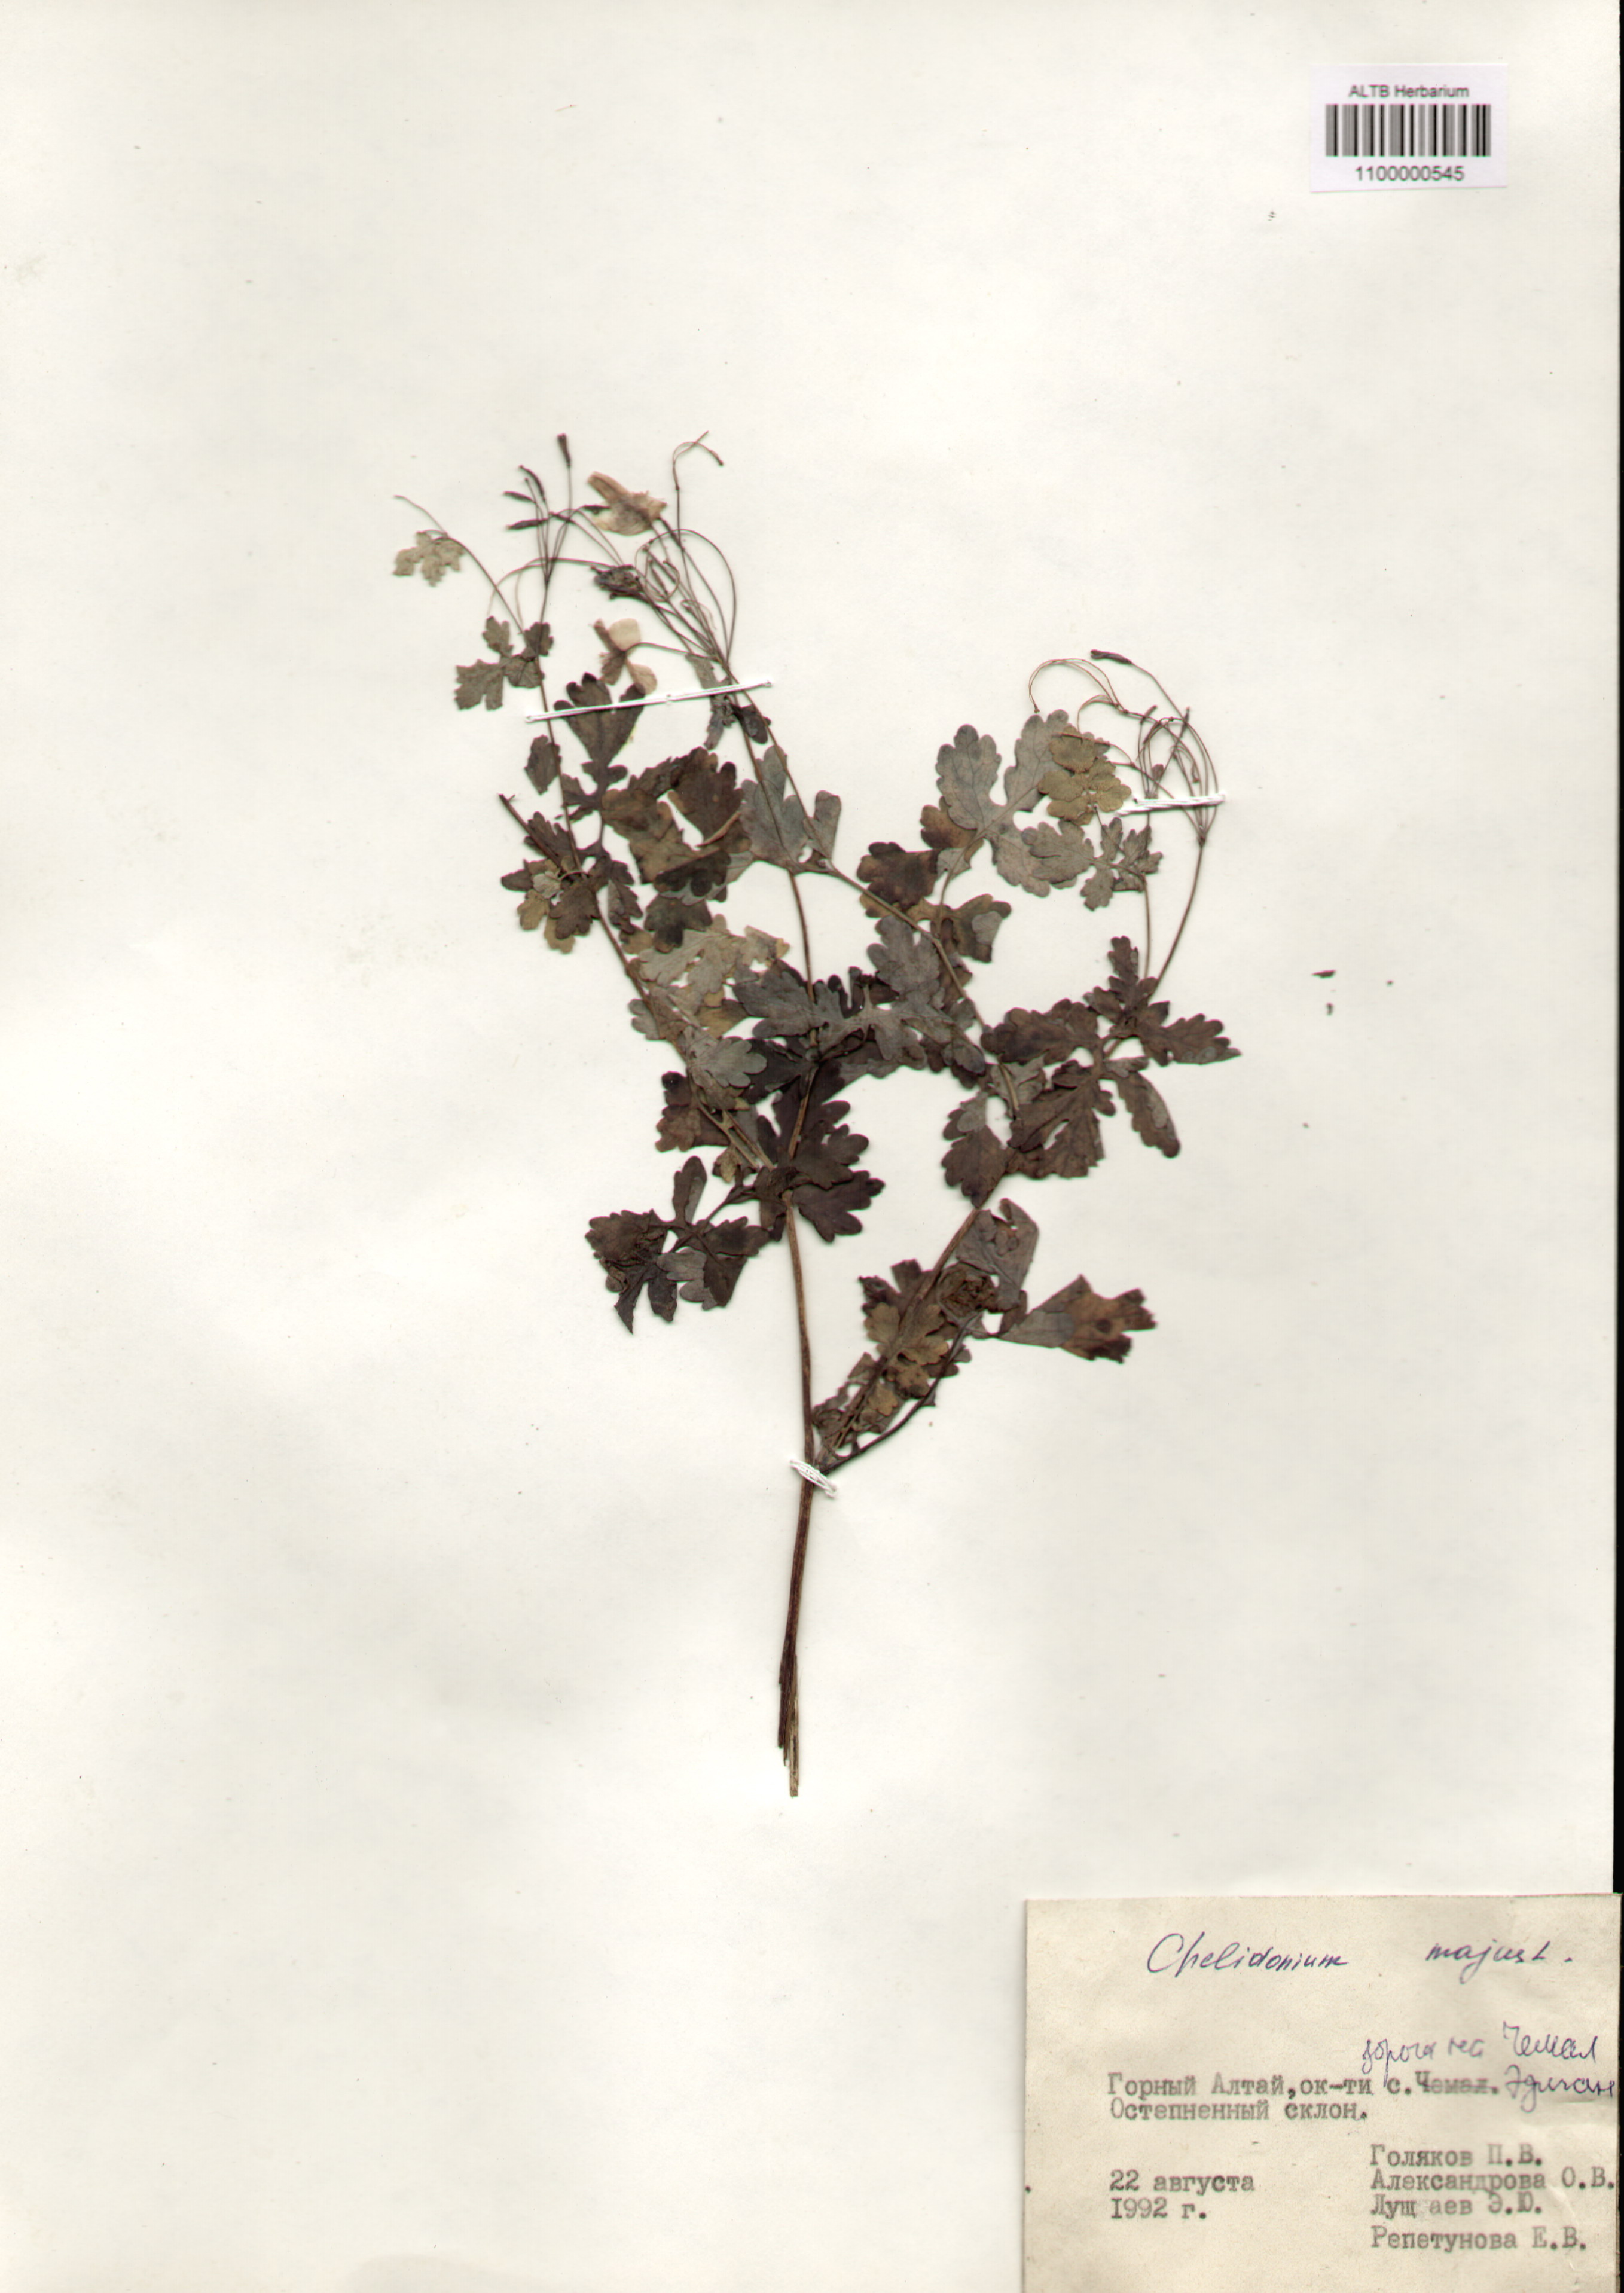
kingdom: Plantae
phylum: Tracheophyta
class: Magnoliopsida
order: Ranunculales
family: Papaveraceae
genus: Chelidonium
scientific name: Chelidonium majus
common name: Greater celandine
